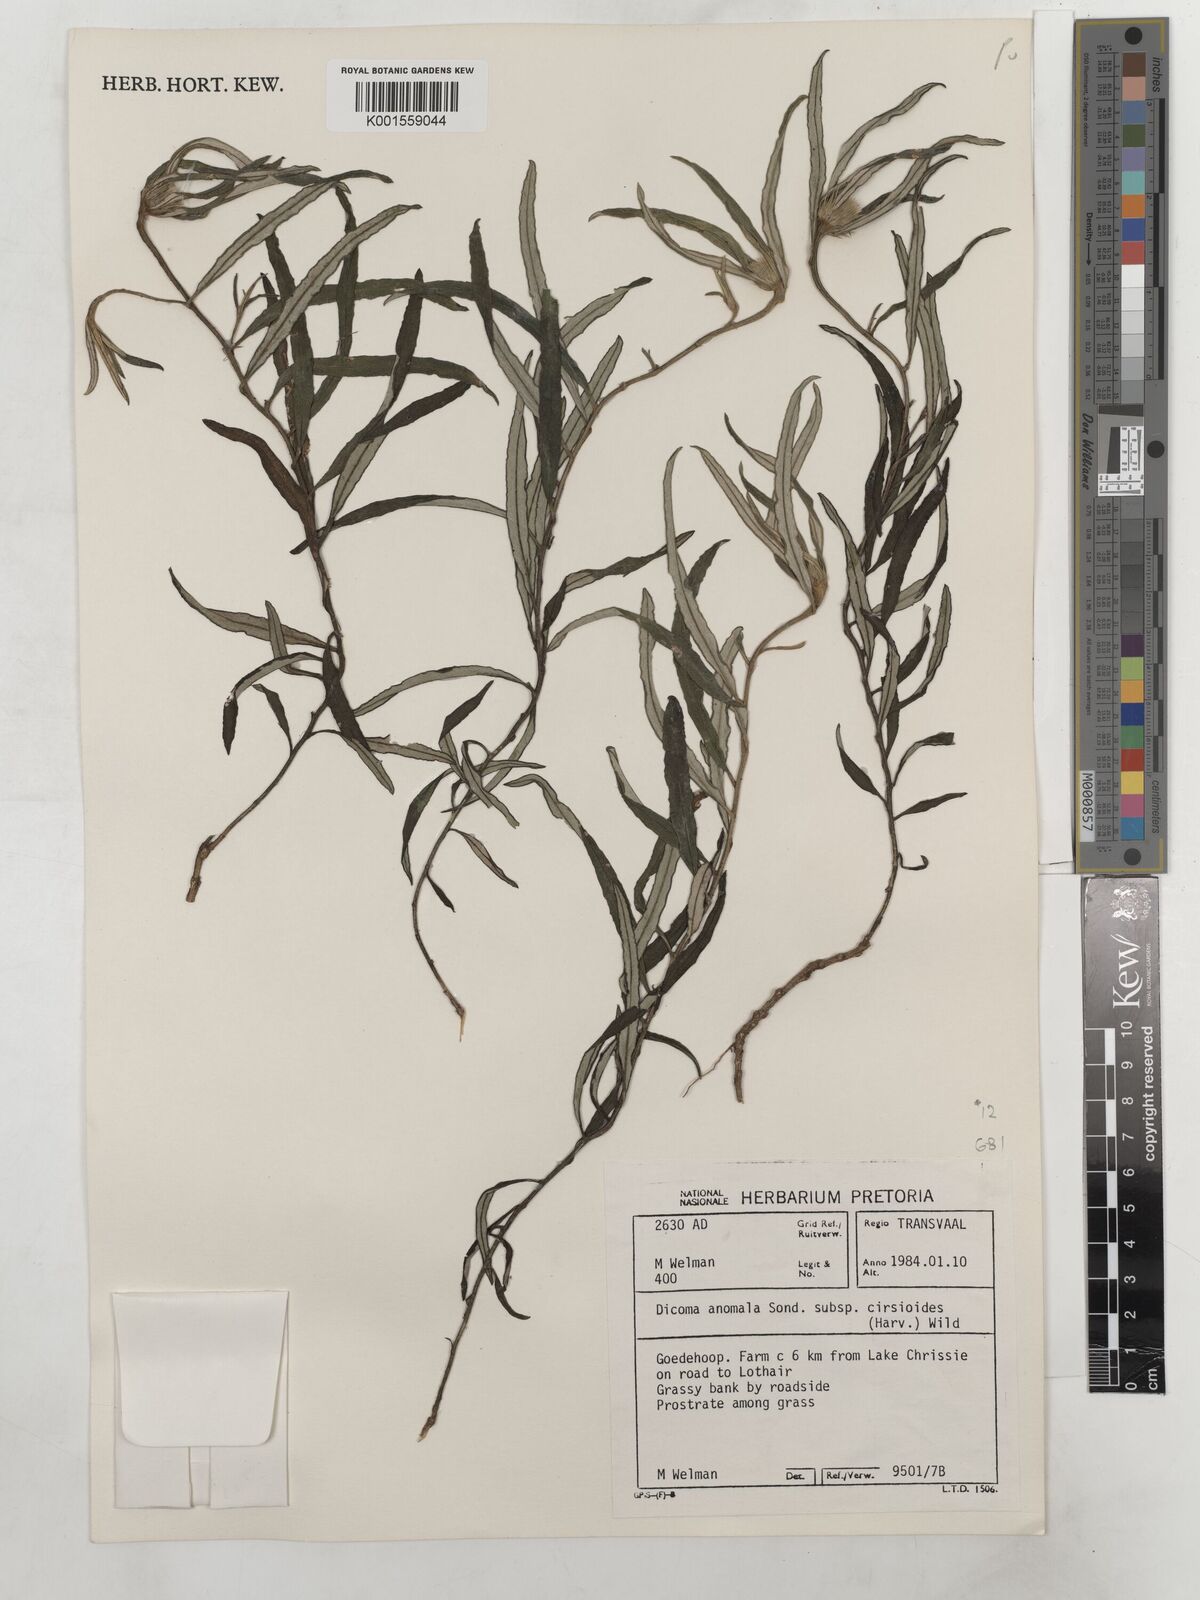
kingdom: Plantae
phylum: Tracheophyta
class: Magnoliopsida
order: Asterales
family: Asteraceae
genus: Dicoma
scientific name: Dicoma anomala
